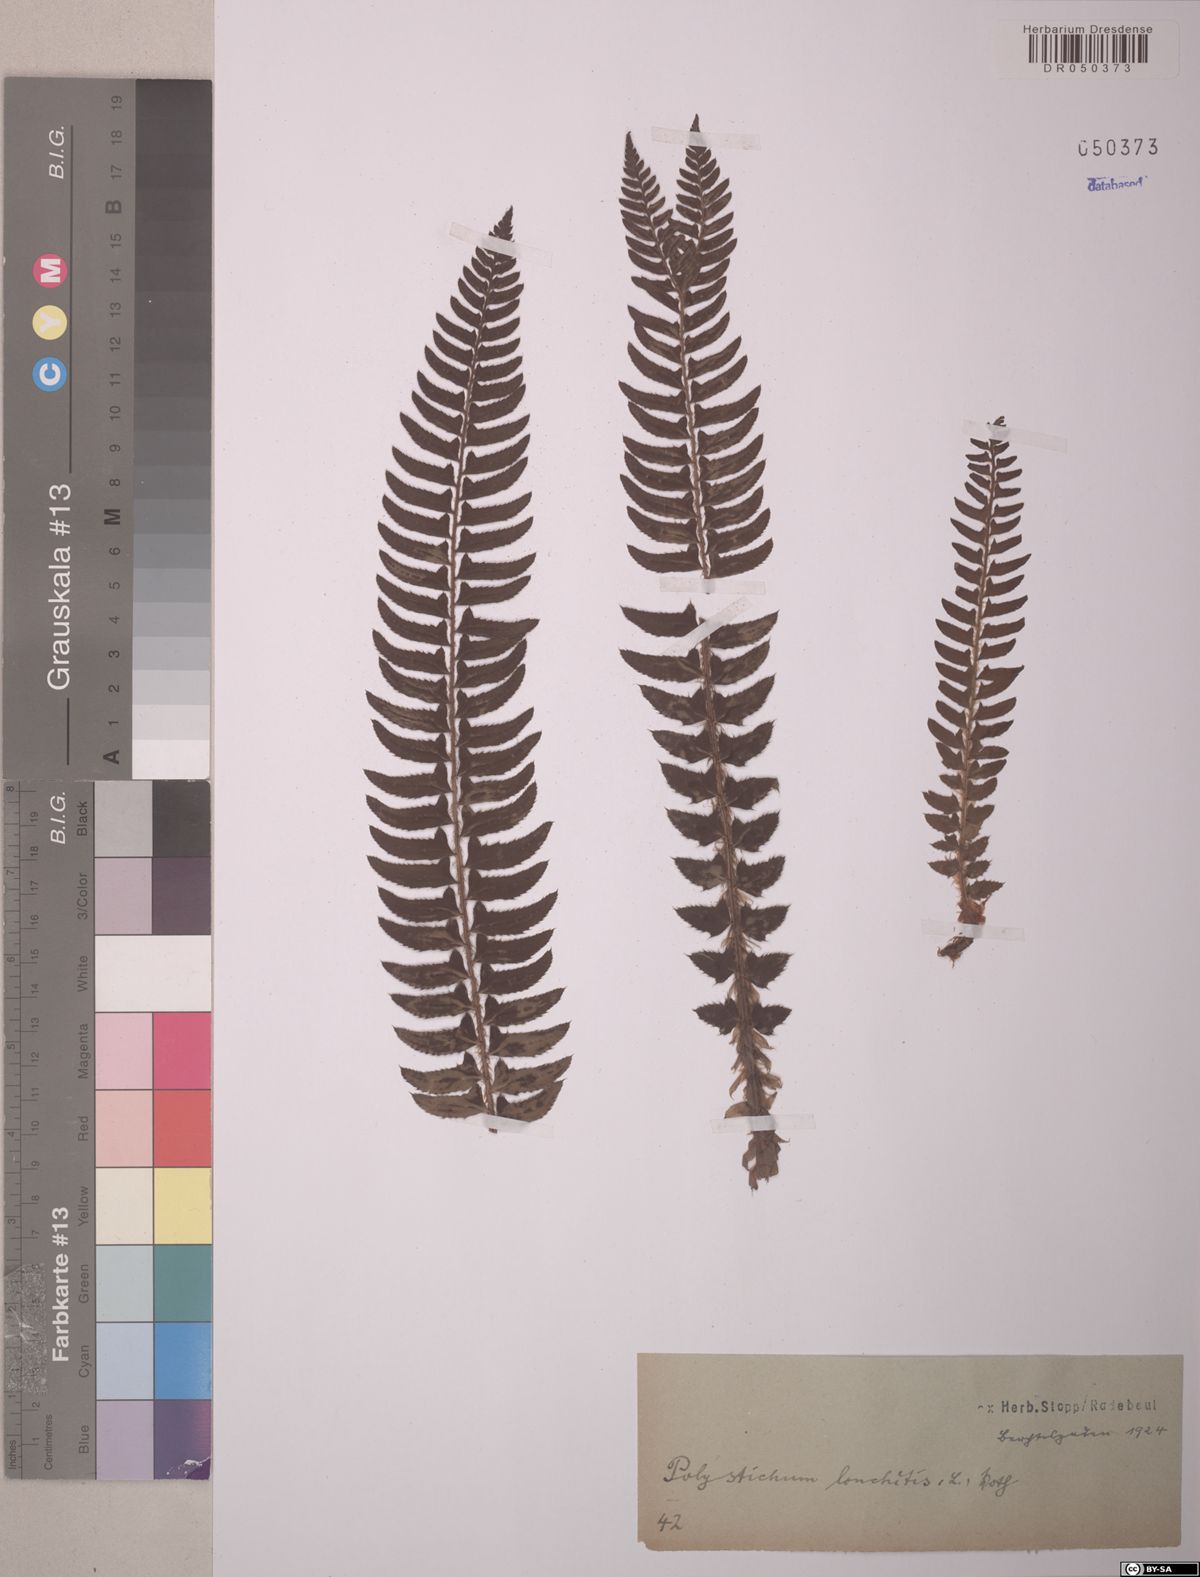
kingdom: Plantae
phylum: Tracheophyta
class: Polypodiopsida
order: Polypodiales
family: Dryopteridaceae
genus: Polystichum
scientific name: Polystichum lonchitis
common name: Holly fern
